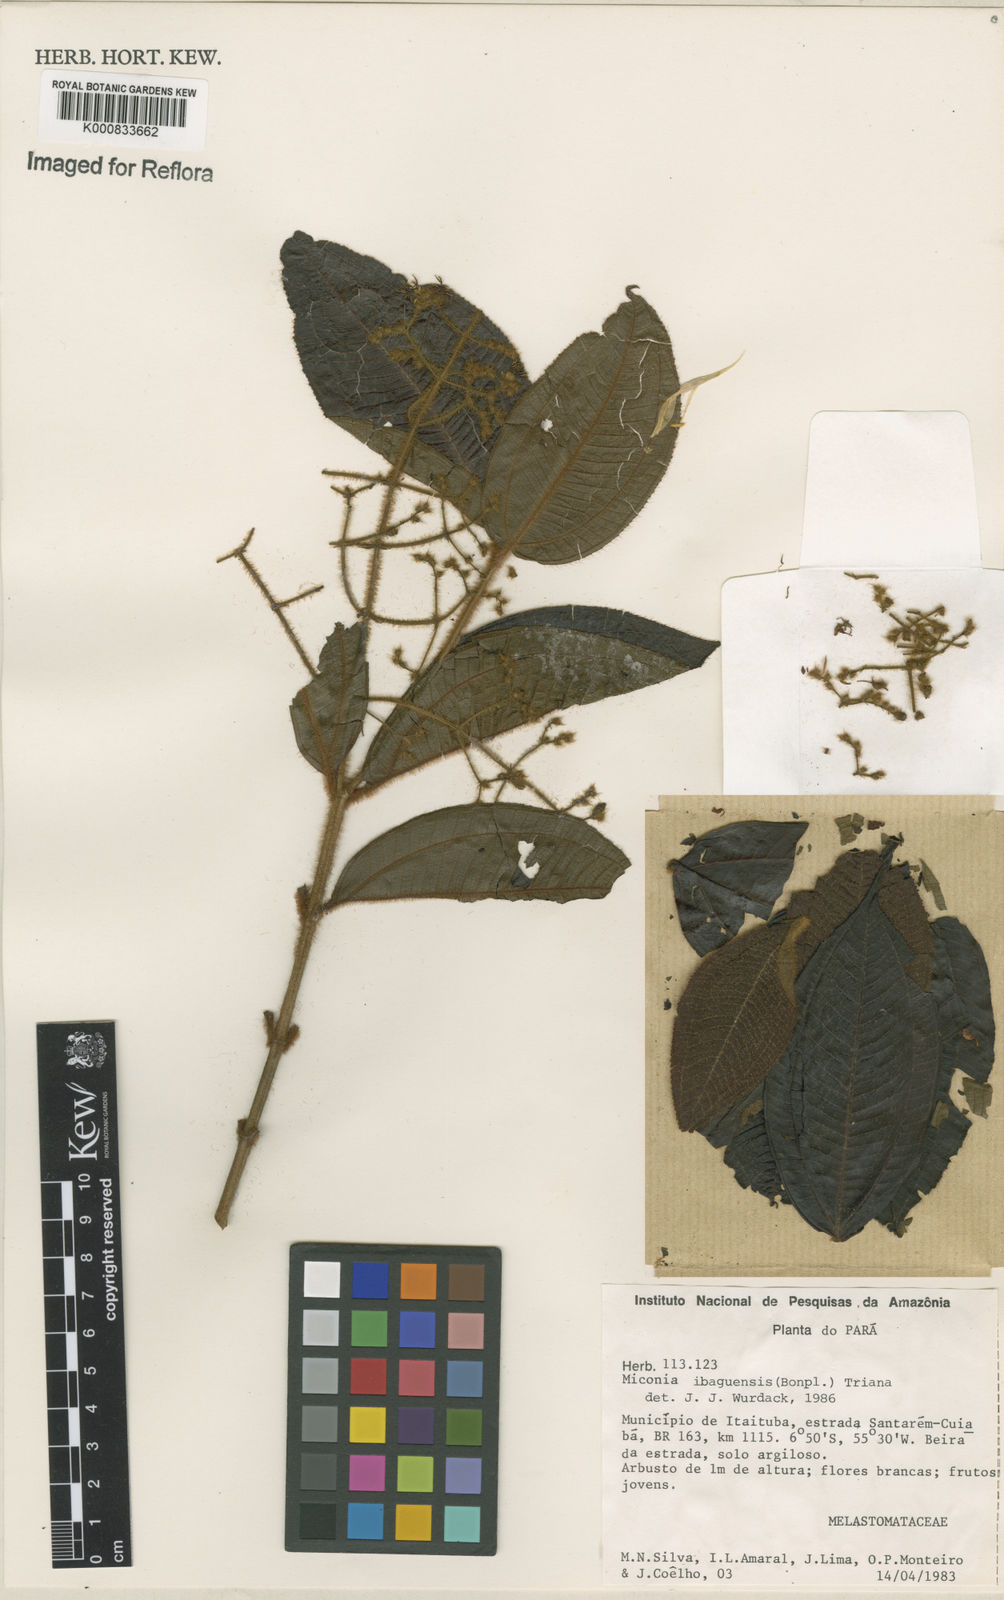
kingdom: Plantae
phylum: Tracheophyta
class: Magnoliopsida
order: Myrtales
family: Melastomataceae
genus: Miconia
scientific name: Miconia ibaguensis
